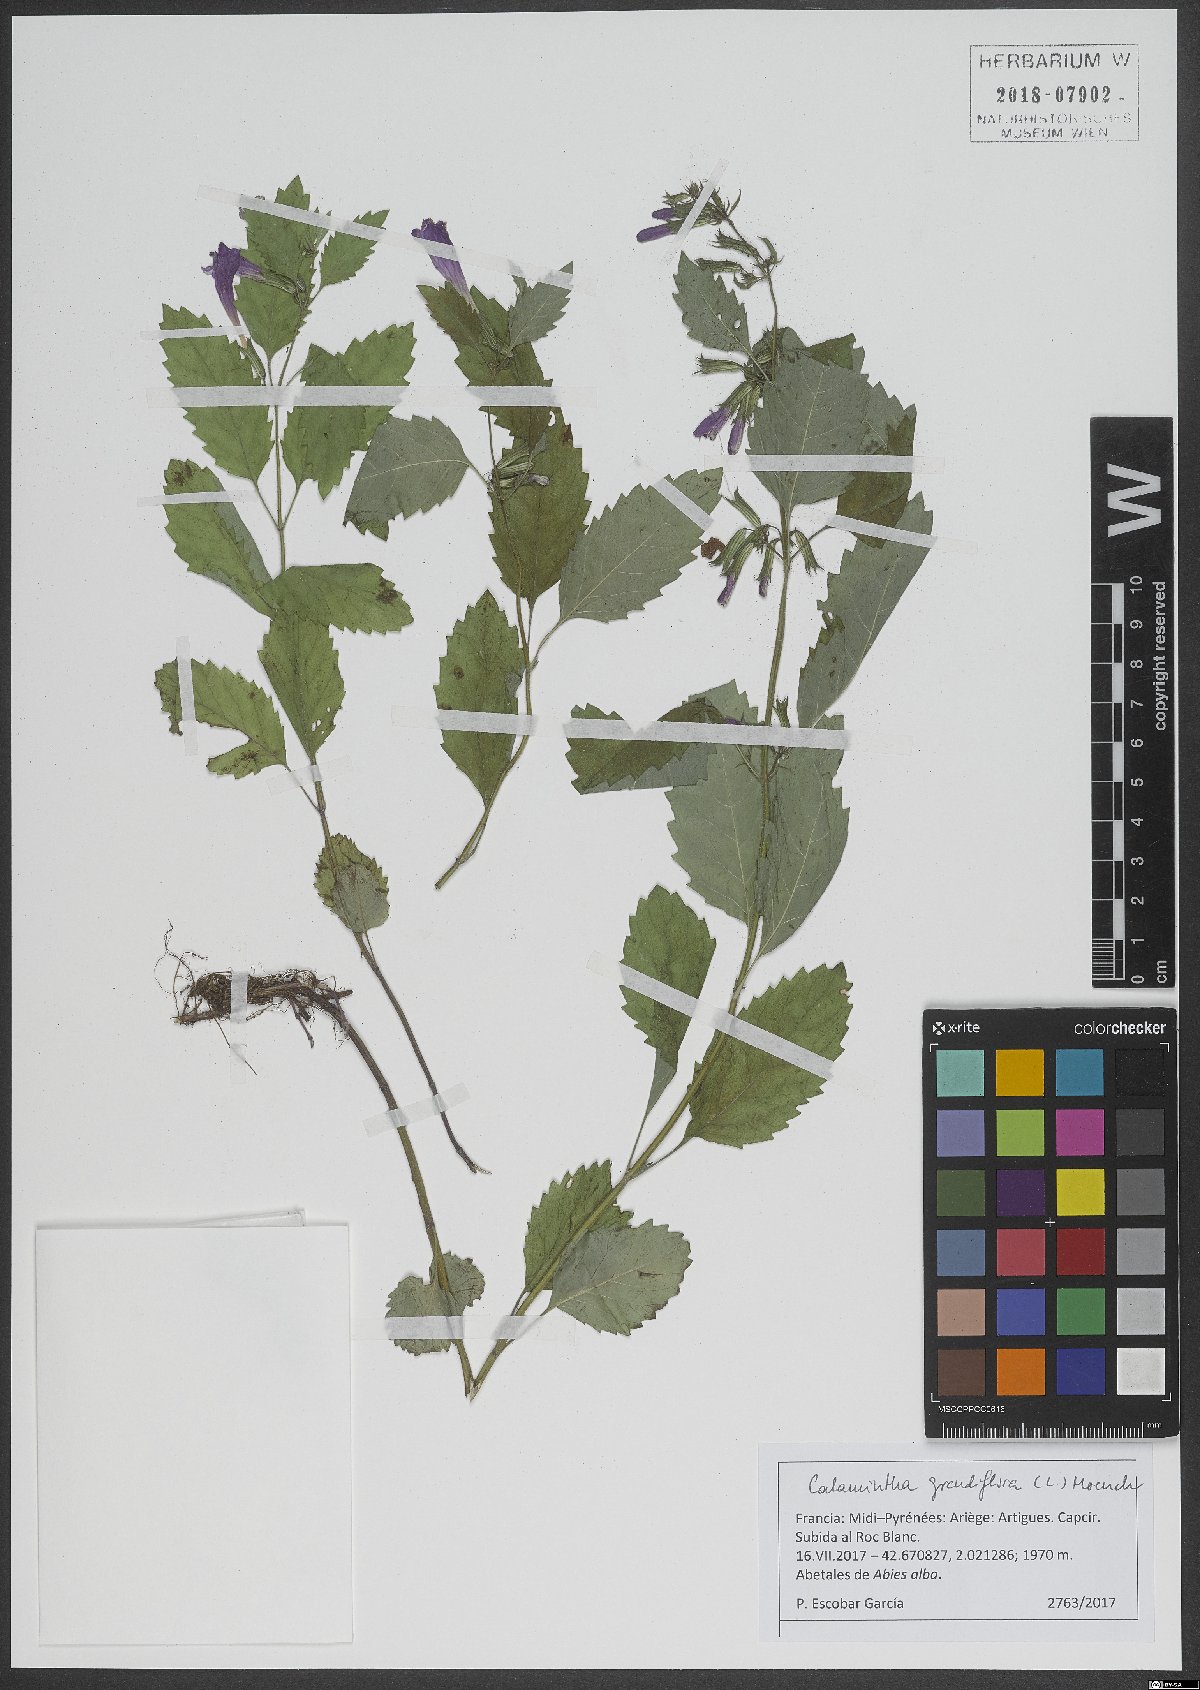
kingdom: Plantae
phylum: Tracheophyta
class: Magnoliopsida
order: Lamiales
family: Lamiaceae
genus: Clinopodium
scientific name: Clinopodium grandiflorum
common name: Greater calamint
